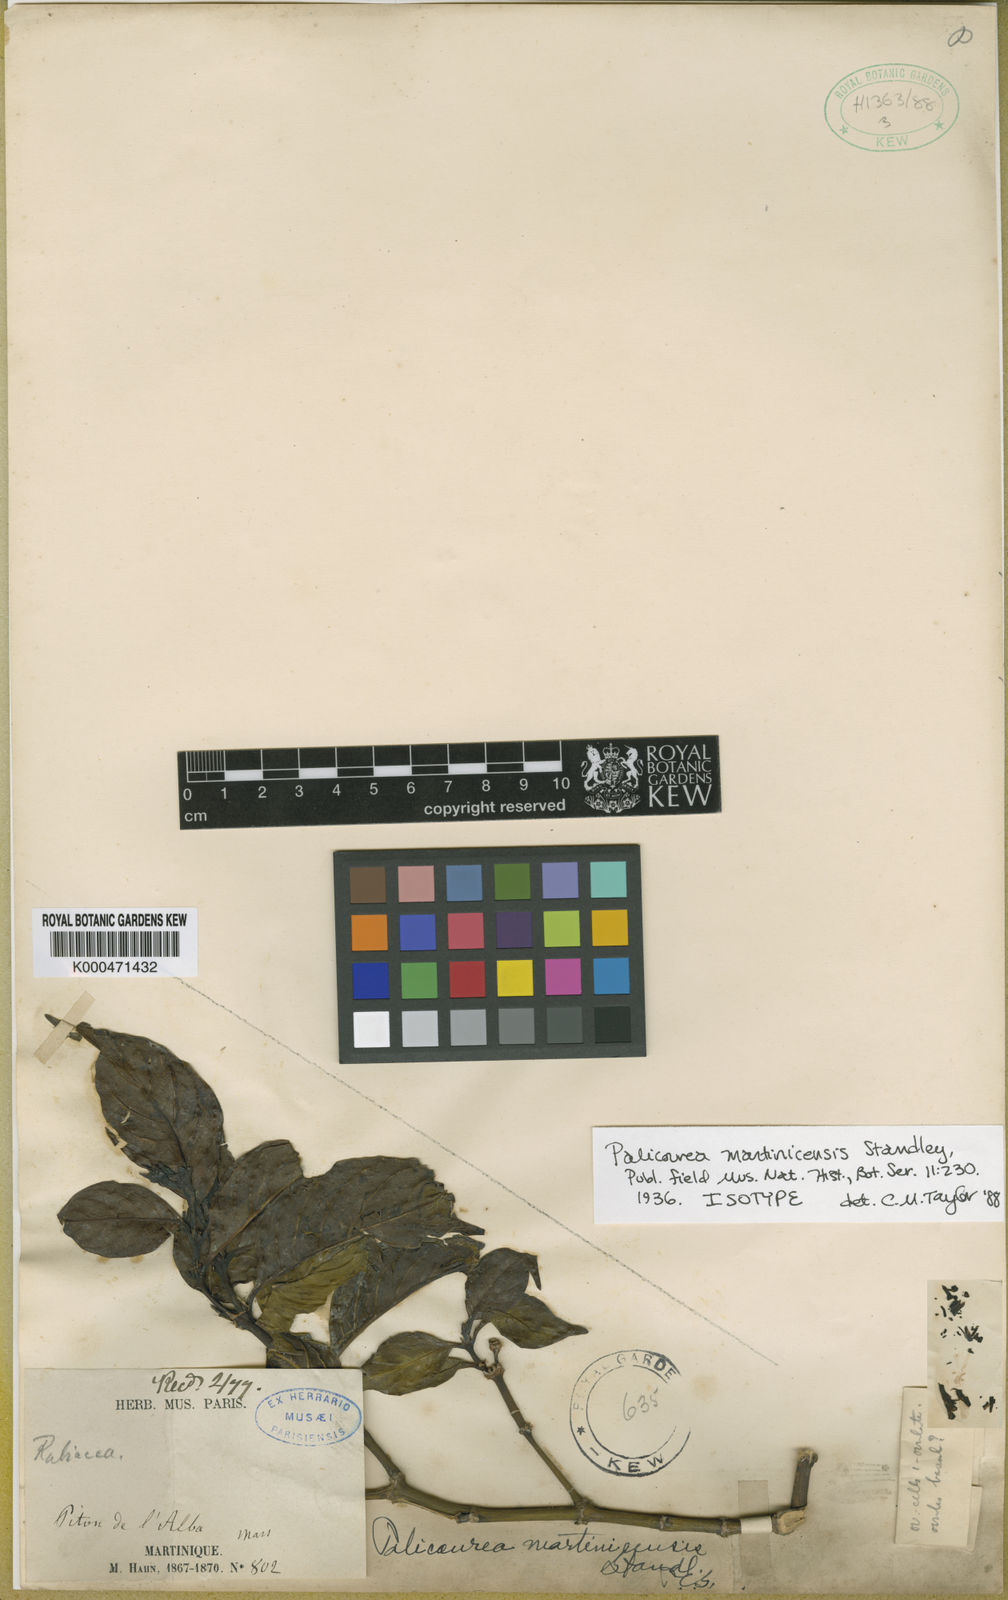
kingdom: Plantae
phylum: Tracheophyta
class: Magnoliopsida
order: Gentianales
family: Rubiaceae
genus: Palicourea
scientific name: Palicourea croceoides
